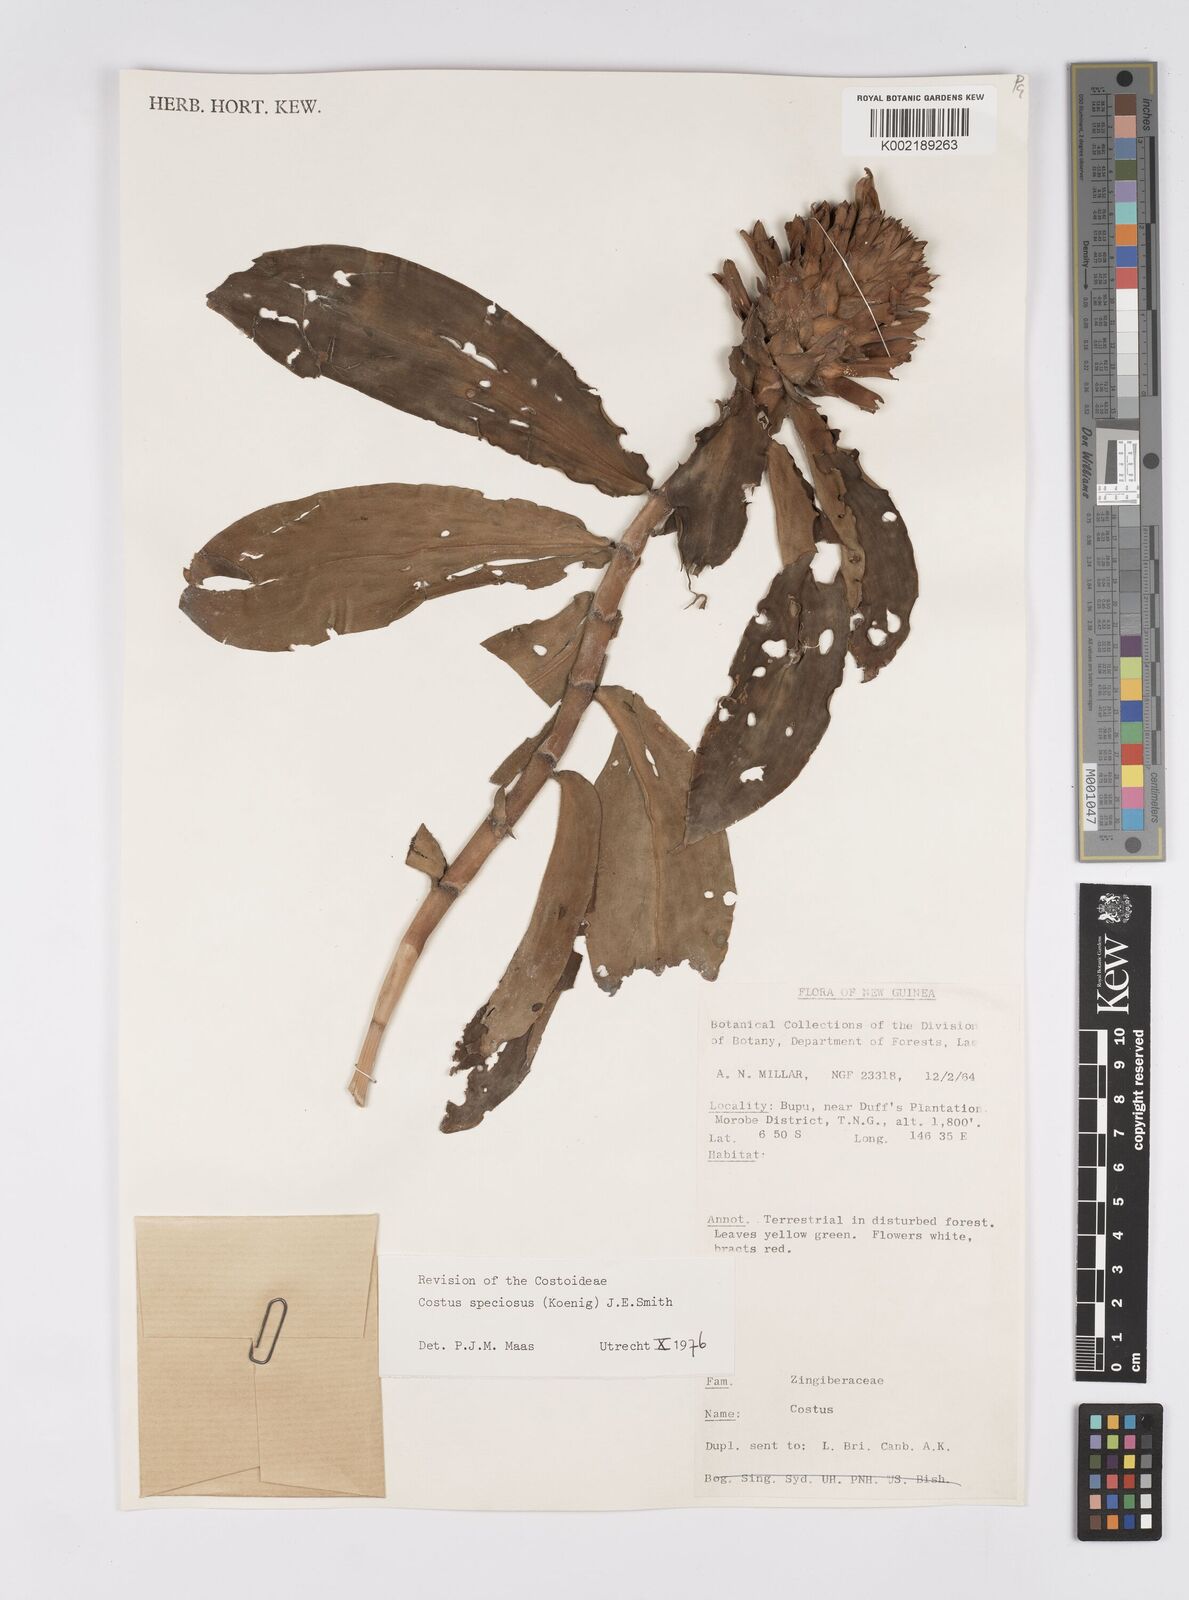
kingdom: Plantae
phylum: Tracheophyta
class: Liliopsida
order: Zingiberales
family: Costaceae
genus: Hellenia
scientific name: Hellenia speciosa
